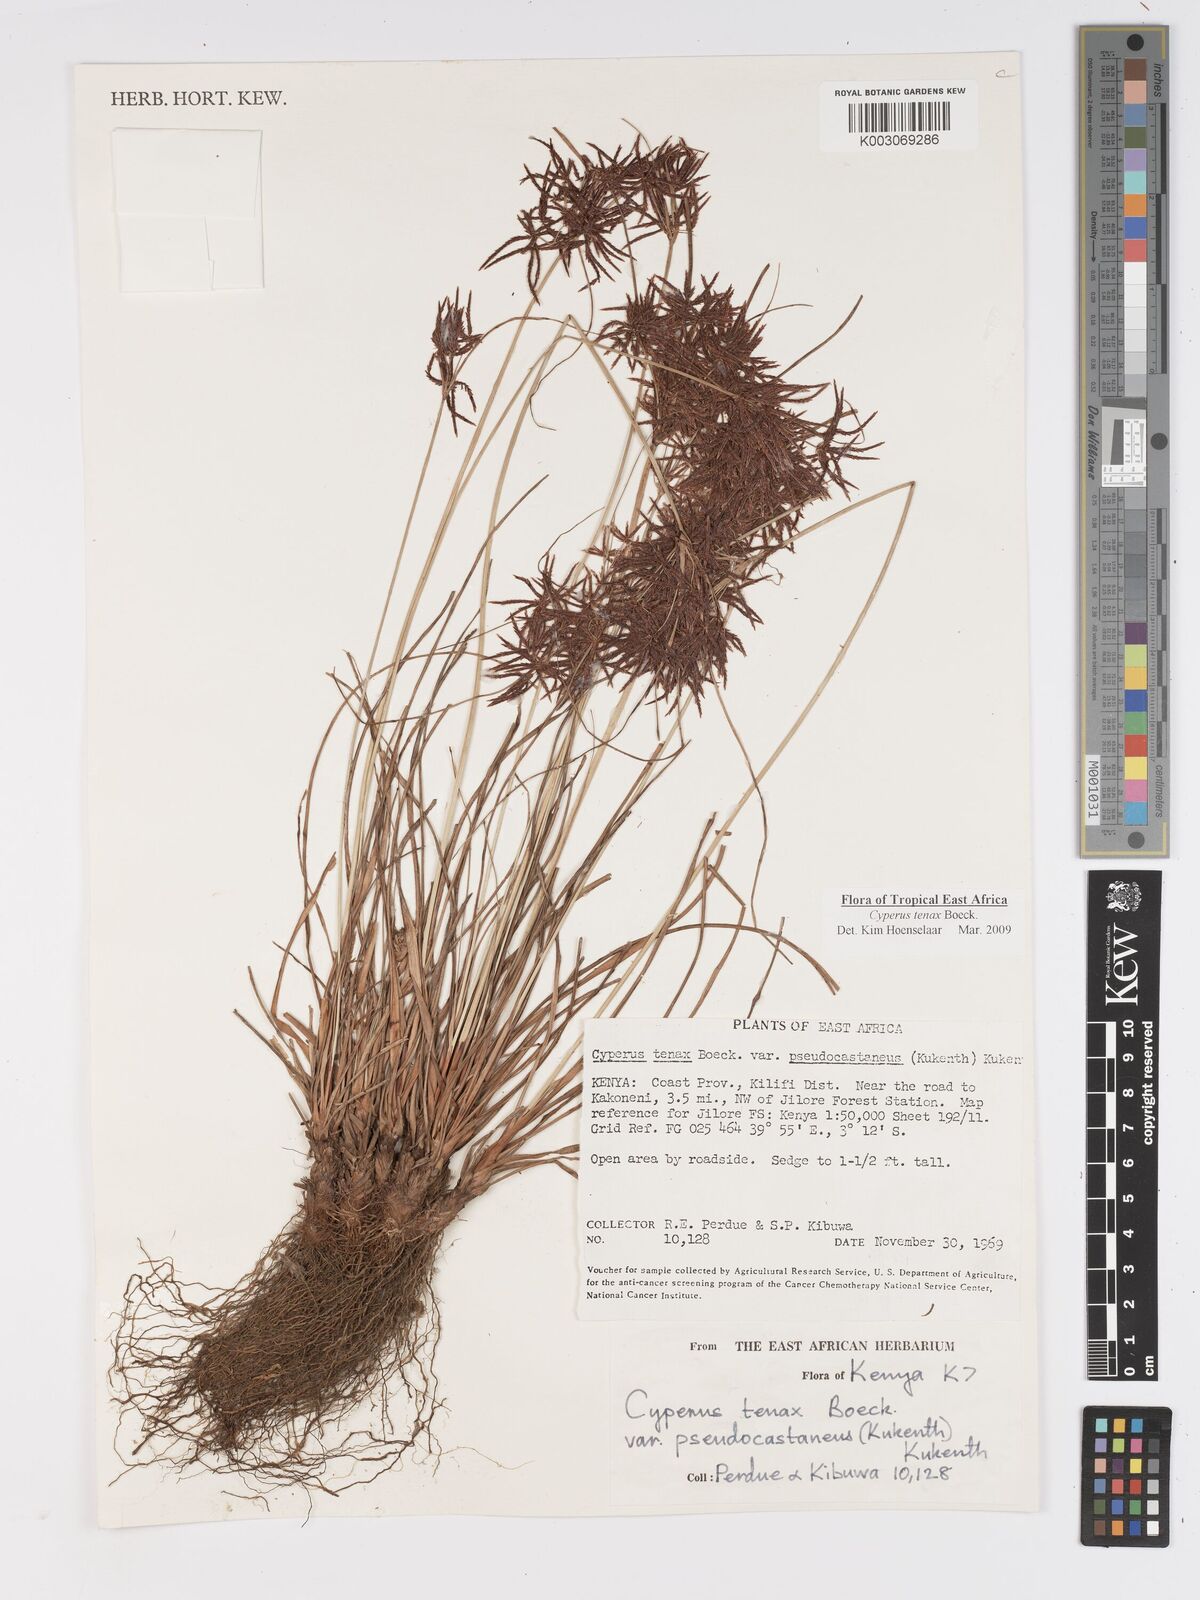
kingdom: Plantae
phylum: Tracheophyta
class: Liliopsida
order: Poales
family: Cyperaceae
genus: Cyperus
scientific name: Cyperus tenax
